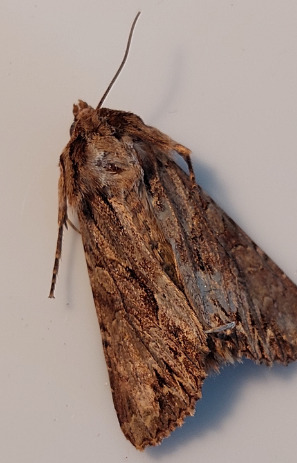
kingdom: Animalia
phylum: Arthropoda
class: Insecta
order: Lepidoptera
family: Noctuidae
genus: Apamea
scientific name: Apamea monoglypha
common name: Jordugle
